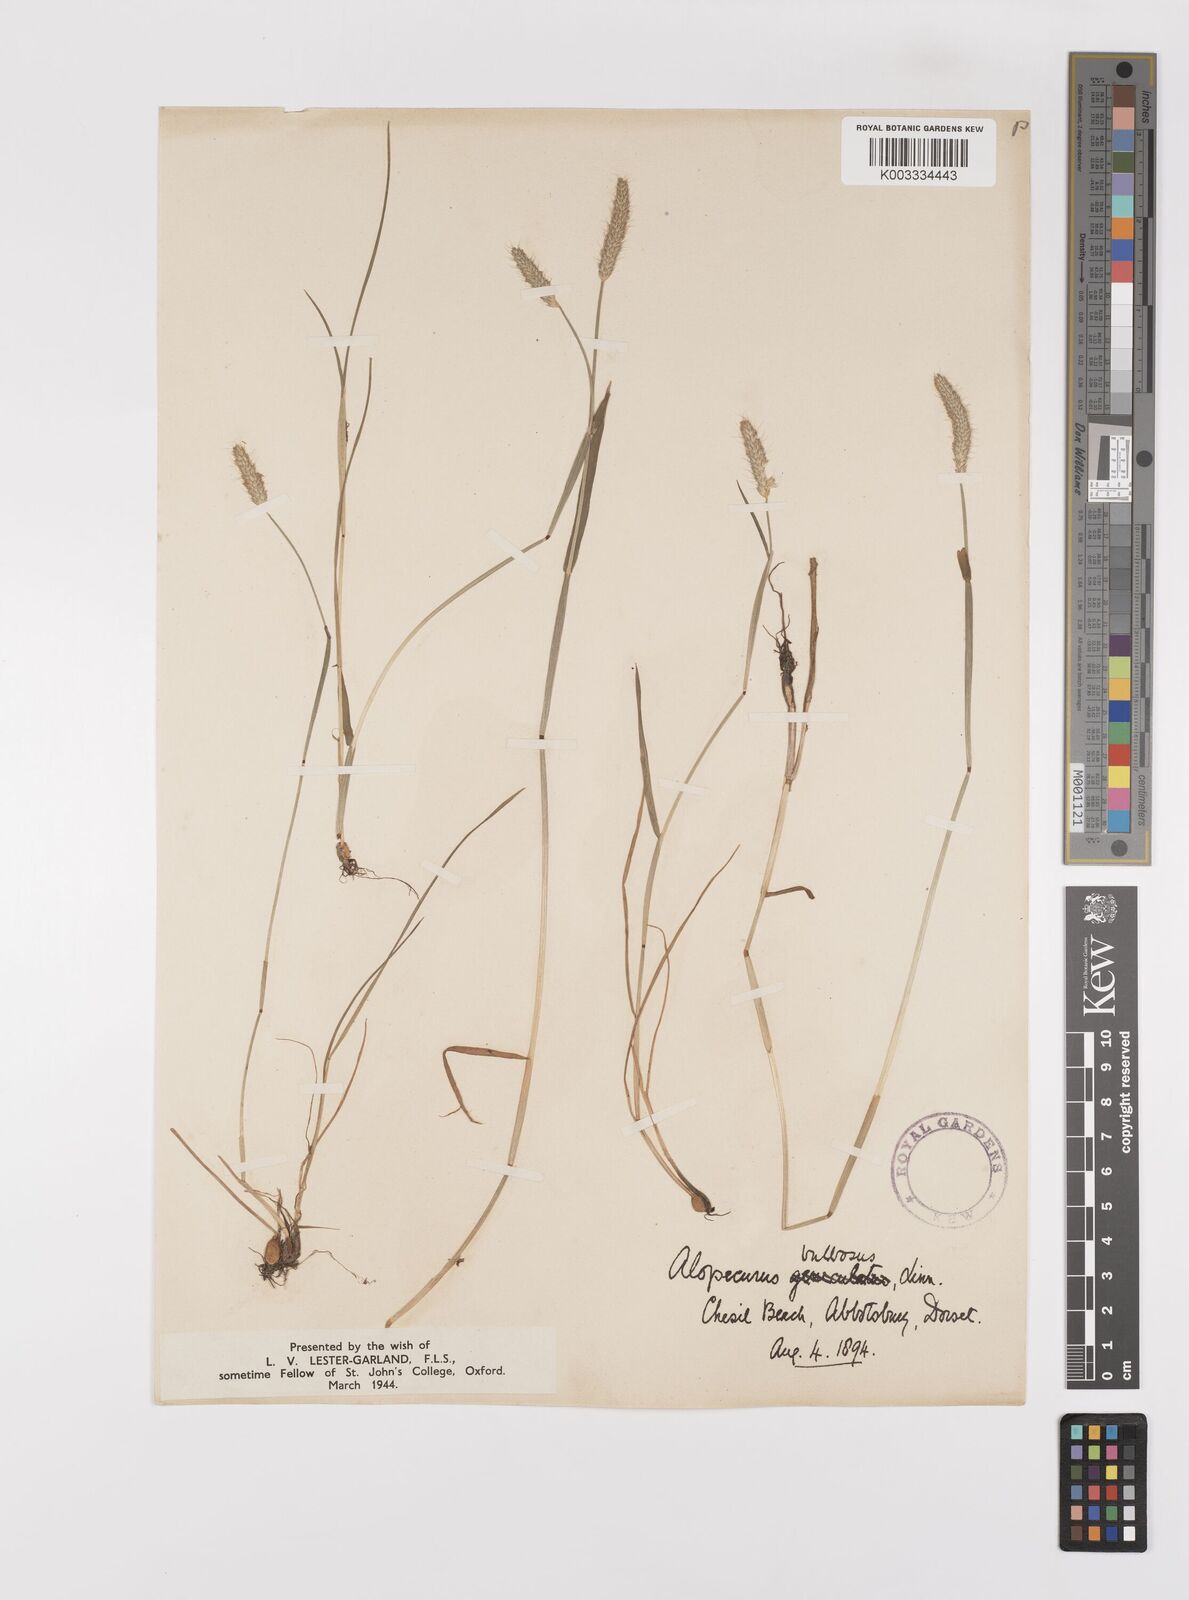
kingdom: Plantae
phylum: Tracheophyta
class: Liliopsida
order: Poales
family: Poaceae
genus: Alopecurus
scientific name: Alopecurus bulbosus
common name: Bulbous foxtail
